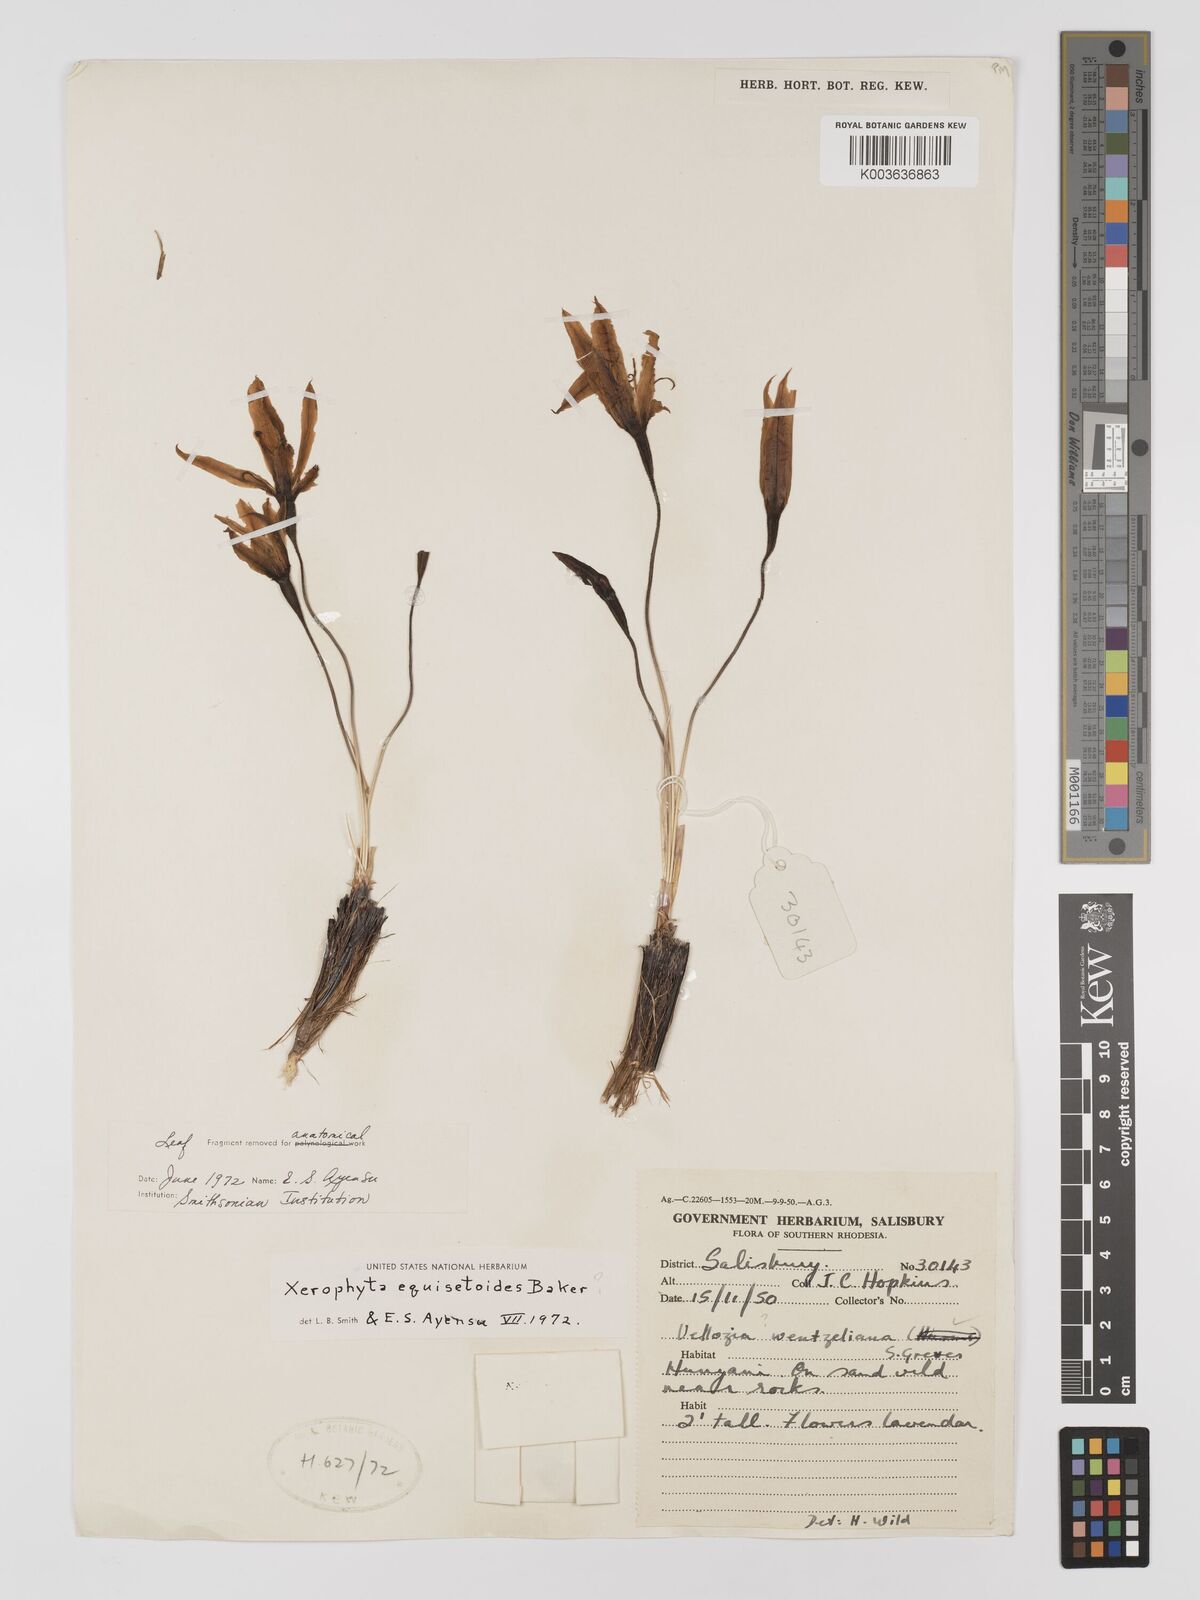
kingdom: Plantae
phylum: Tracheophyta
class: Liliopsida
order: Pandanales
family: Velloziaceae
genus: Xerophyta
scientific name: Xerophyta equisetoides
